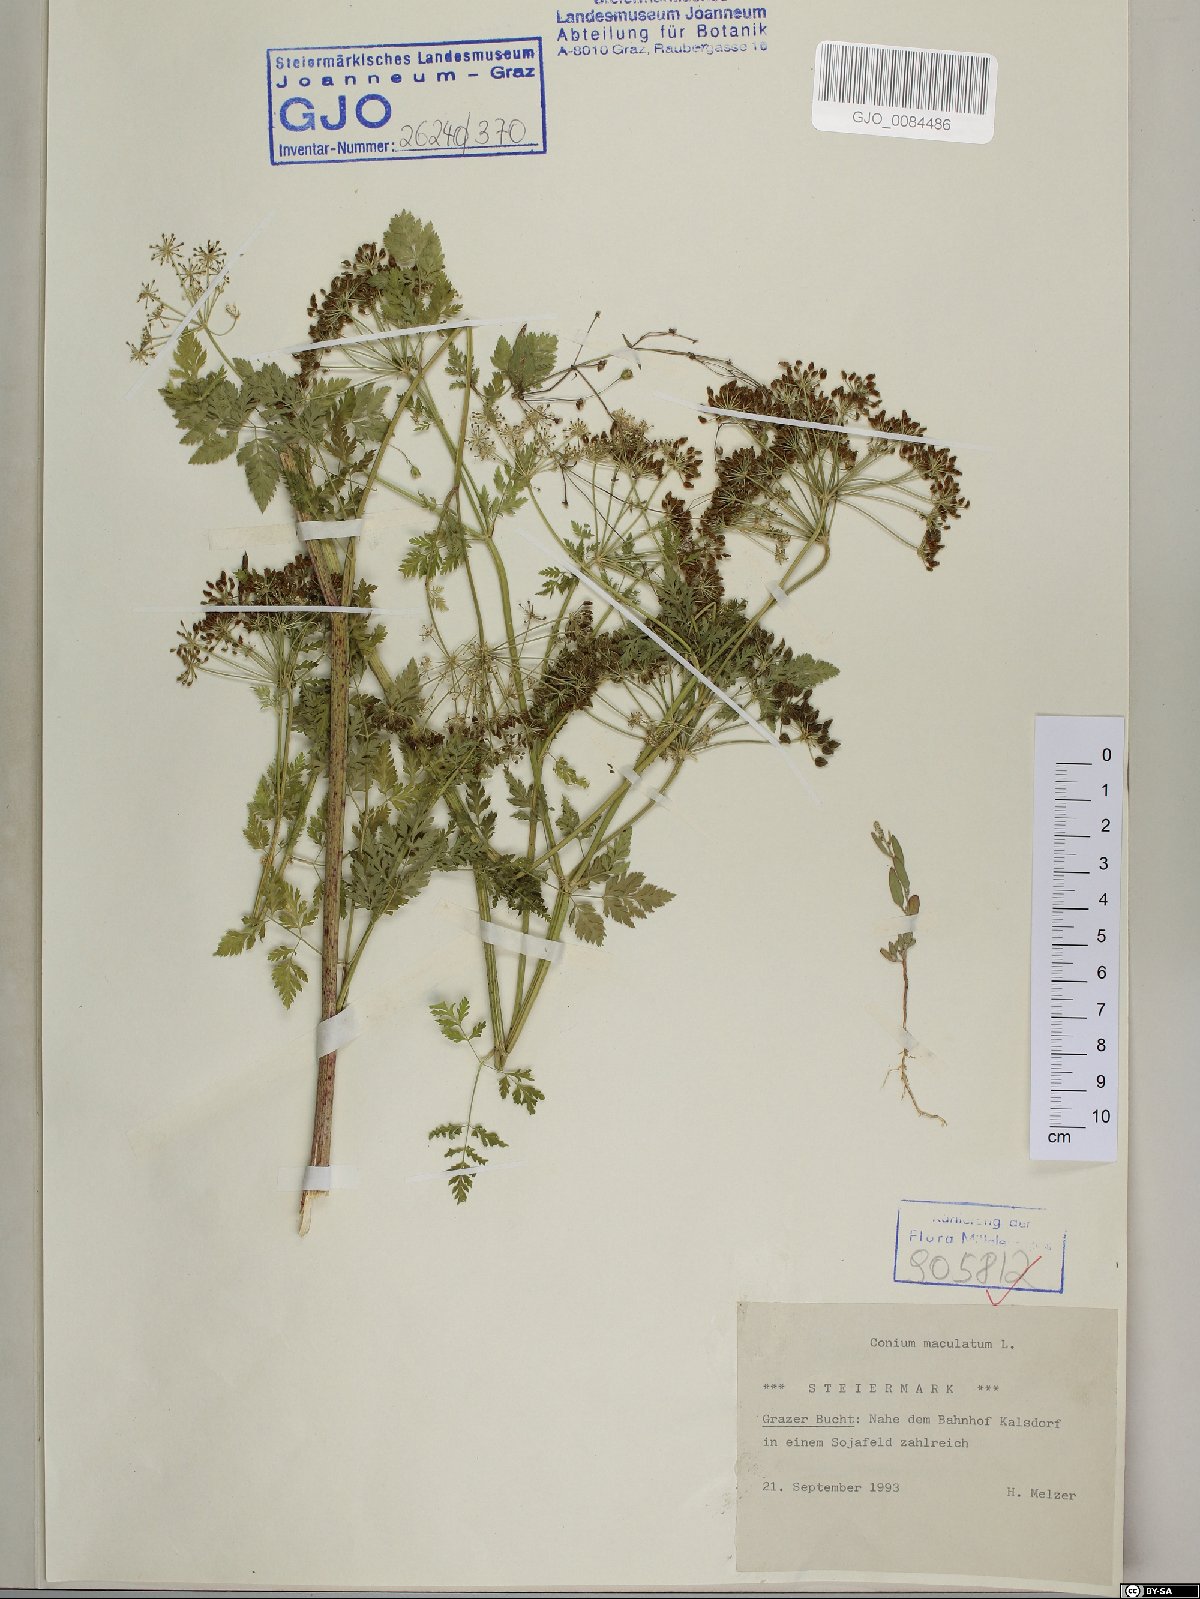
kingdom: Plantae
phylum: Tracheophyta
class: Magnoliopsida
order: Apiales
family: Apiaceae
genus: Conium
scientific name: Conium maculatum
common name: Hemlock
